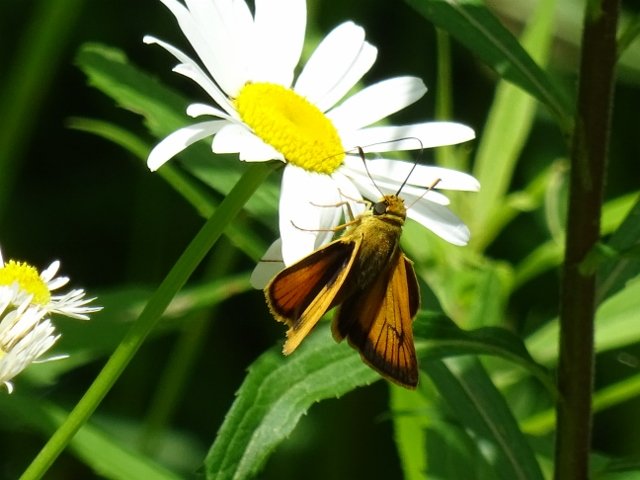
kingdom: Animalia
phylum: Arthropoda
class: Insecta
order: Lepidoptera
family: Hesperiidae
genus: Atrytone
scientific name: Atrytone delaware
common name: Delaware Skipper
